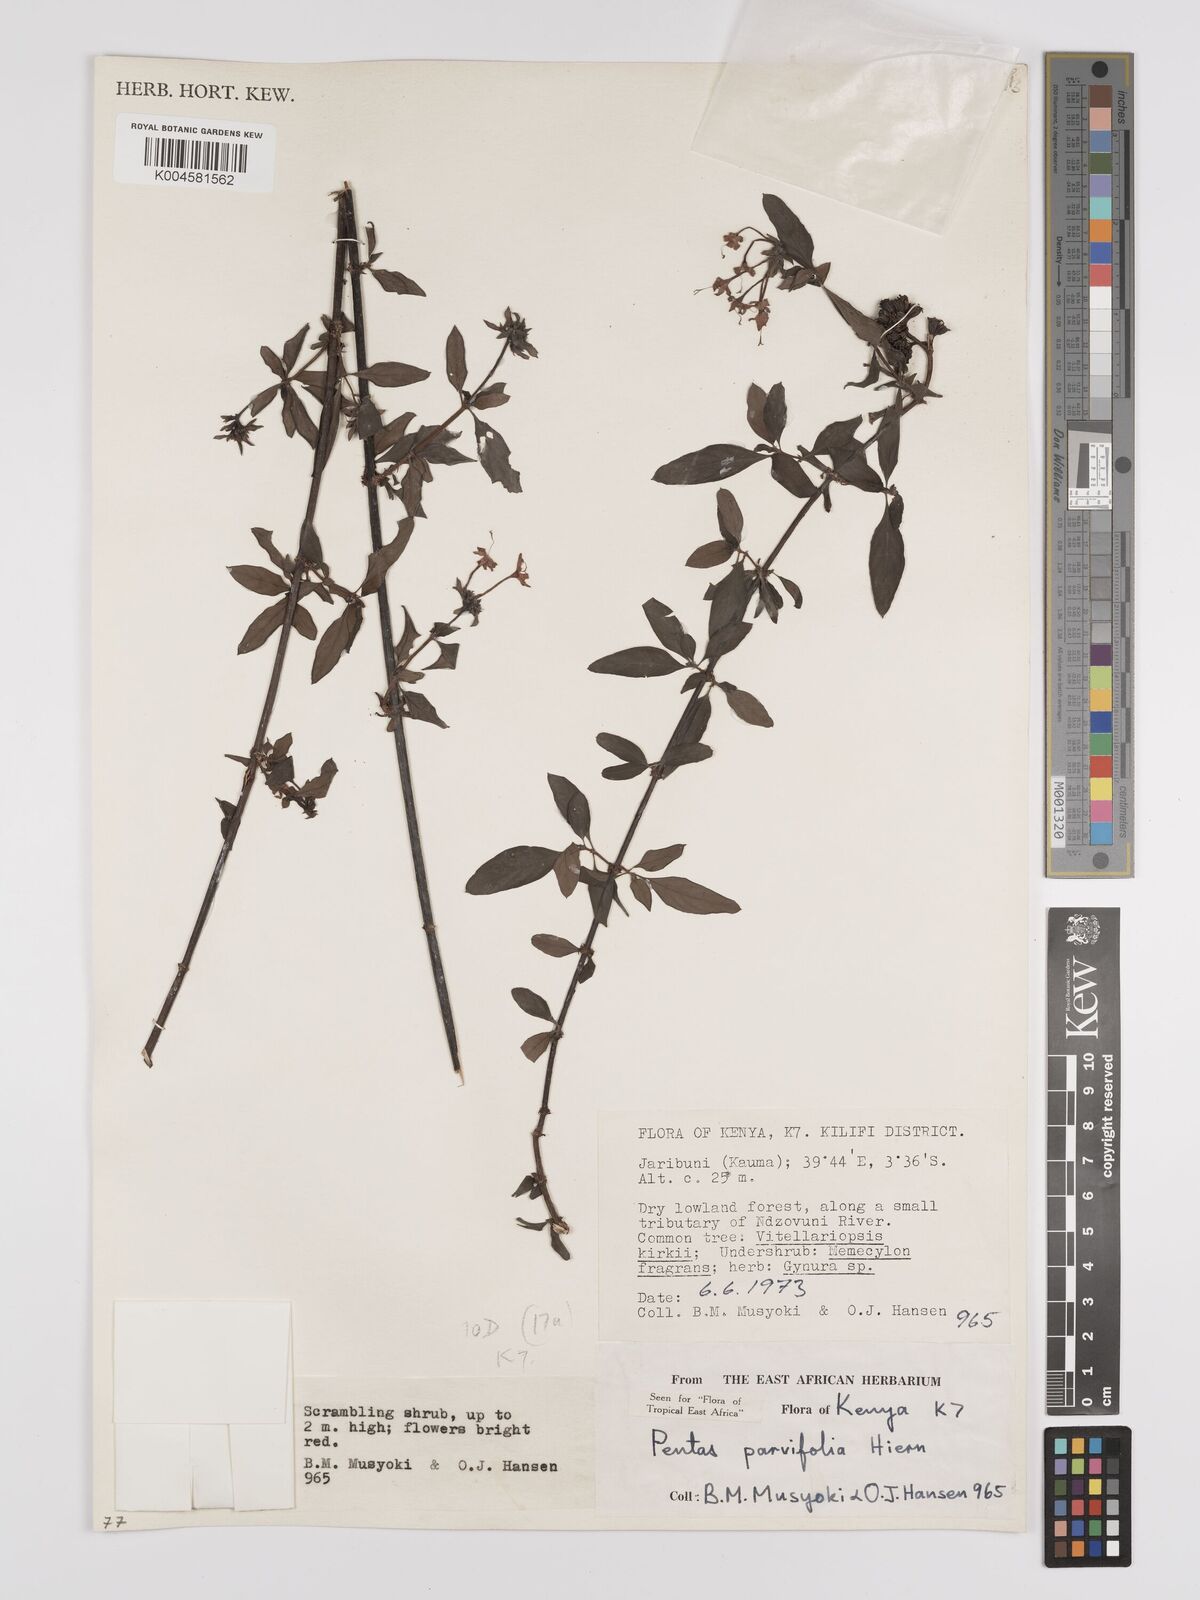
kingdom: Plantae
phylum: Tracheophyta
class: Magnoliopsida
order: Gentianales
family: Rubiaceae
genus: Rhodopentas
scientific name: Rhodopentas parvifolia
